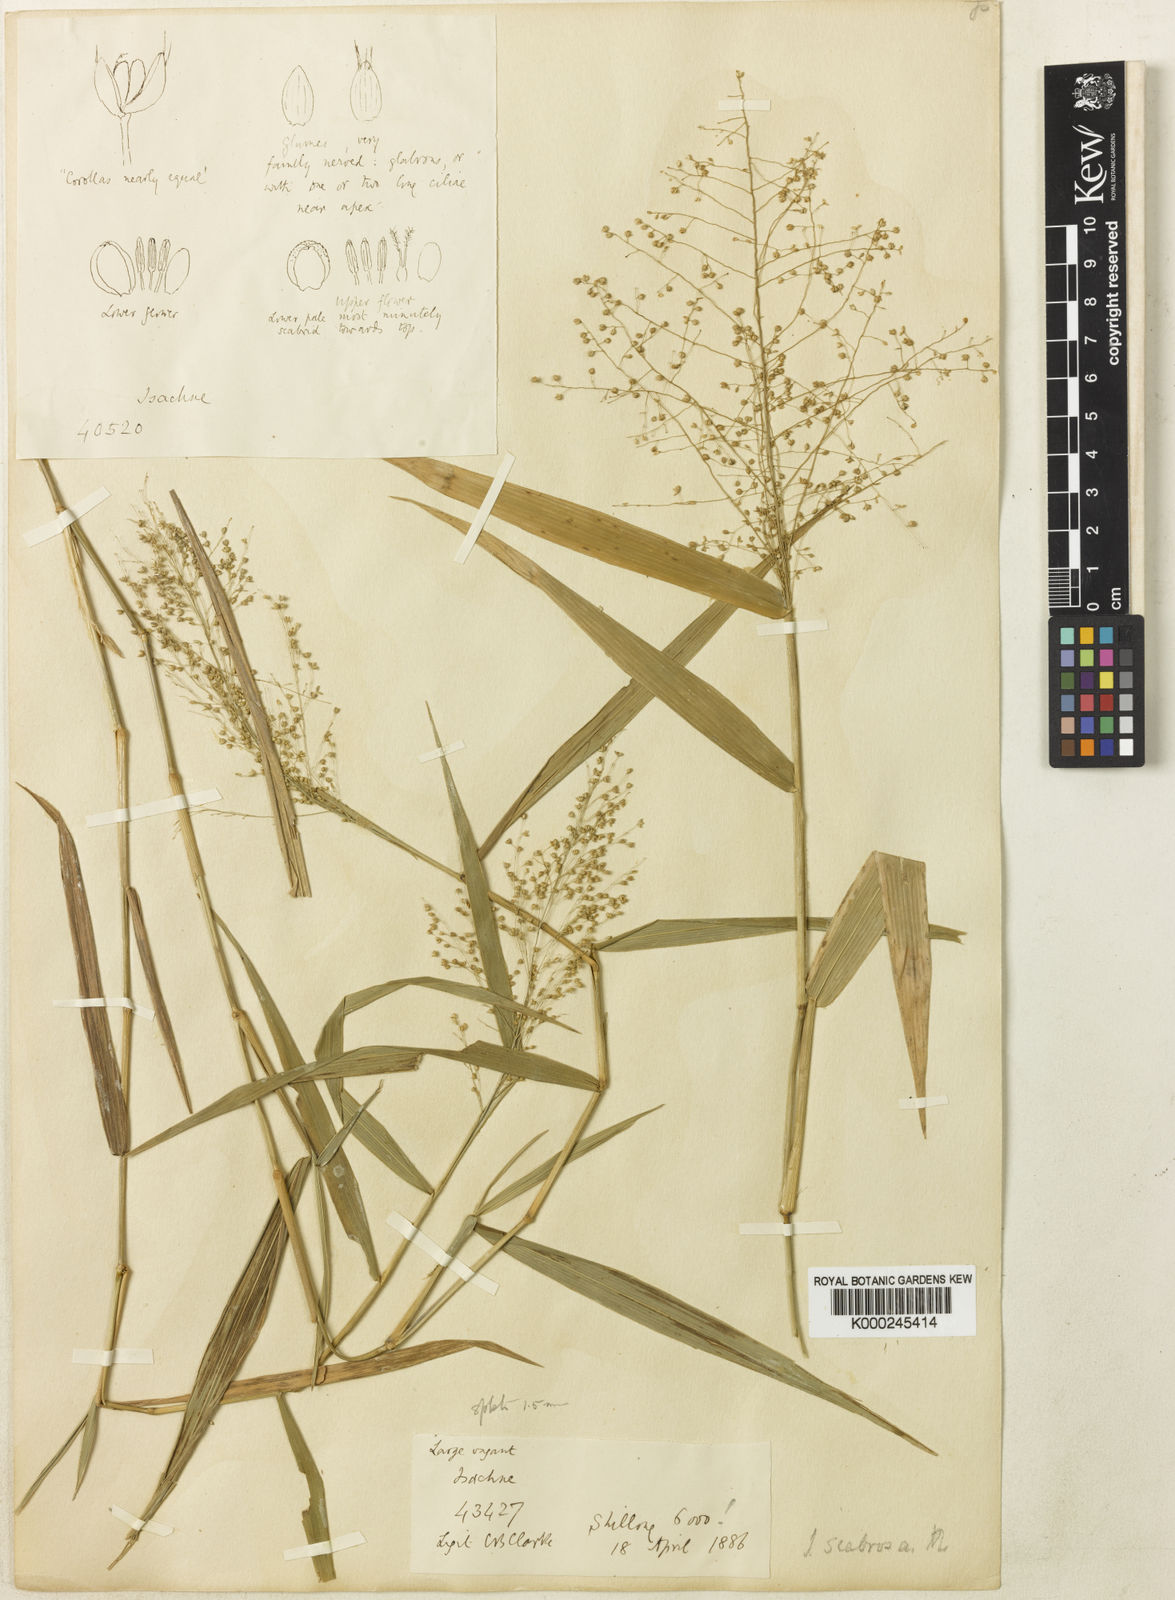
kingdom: Plantae
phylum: Tracheophyta
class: Liliopsida
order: Poales
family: Poaceae
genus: Isachne
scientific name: Isachne scabrosa
